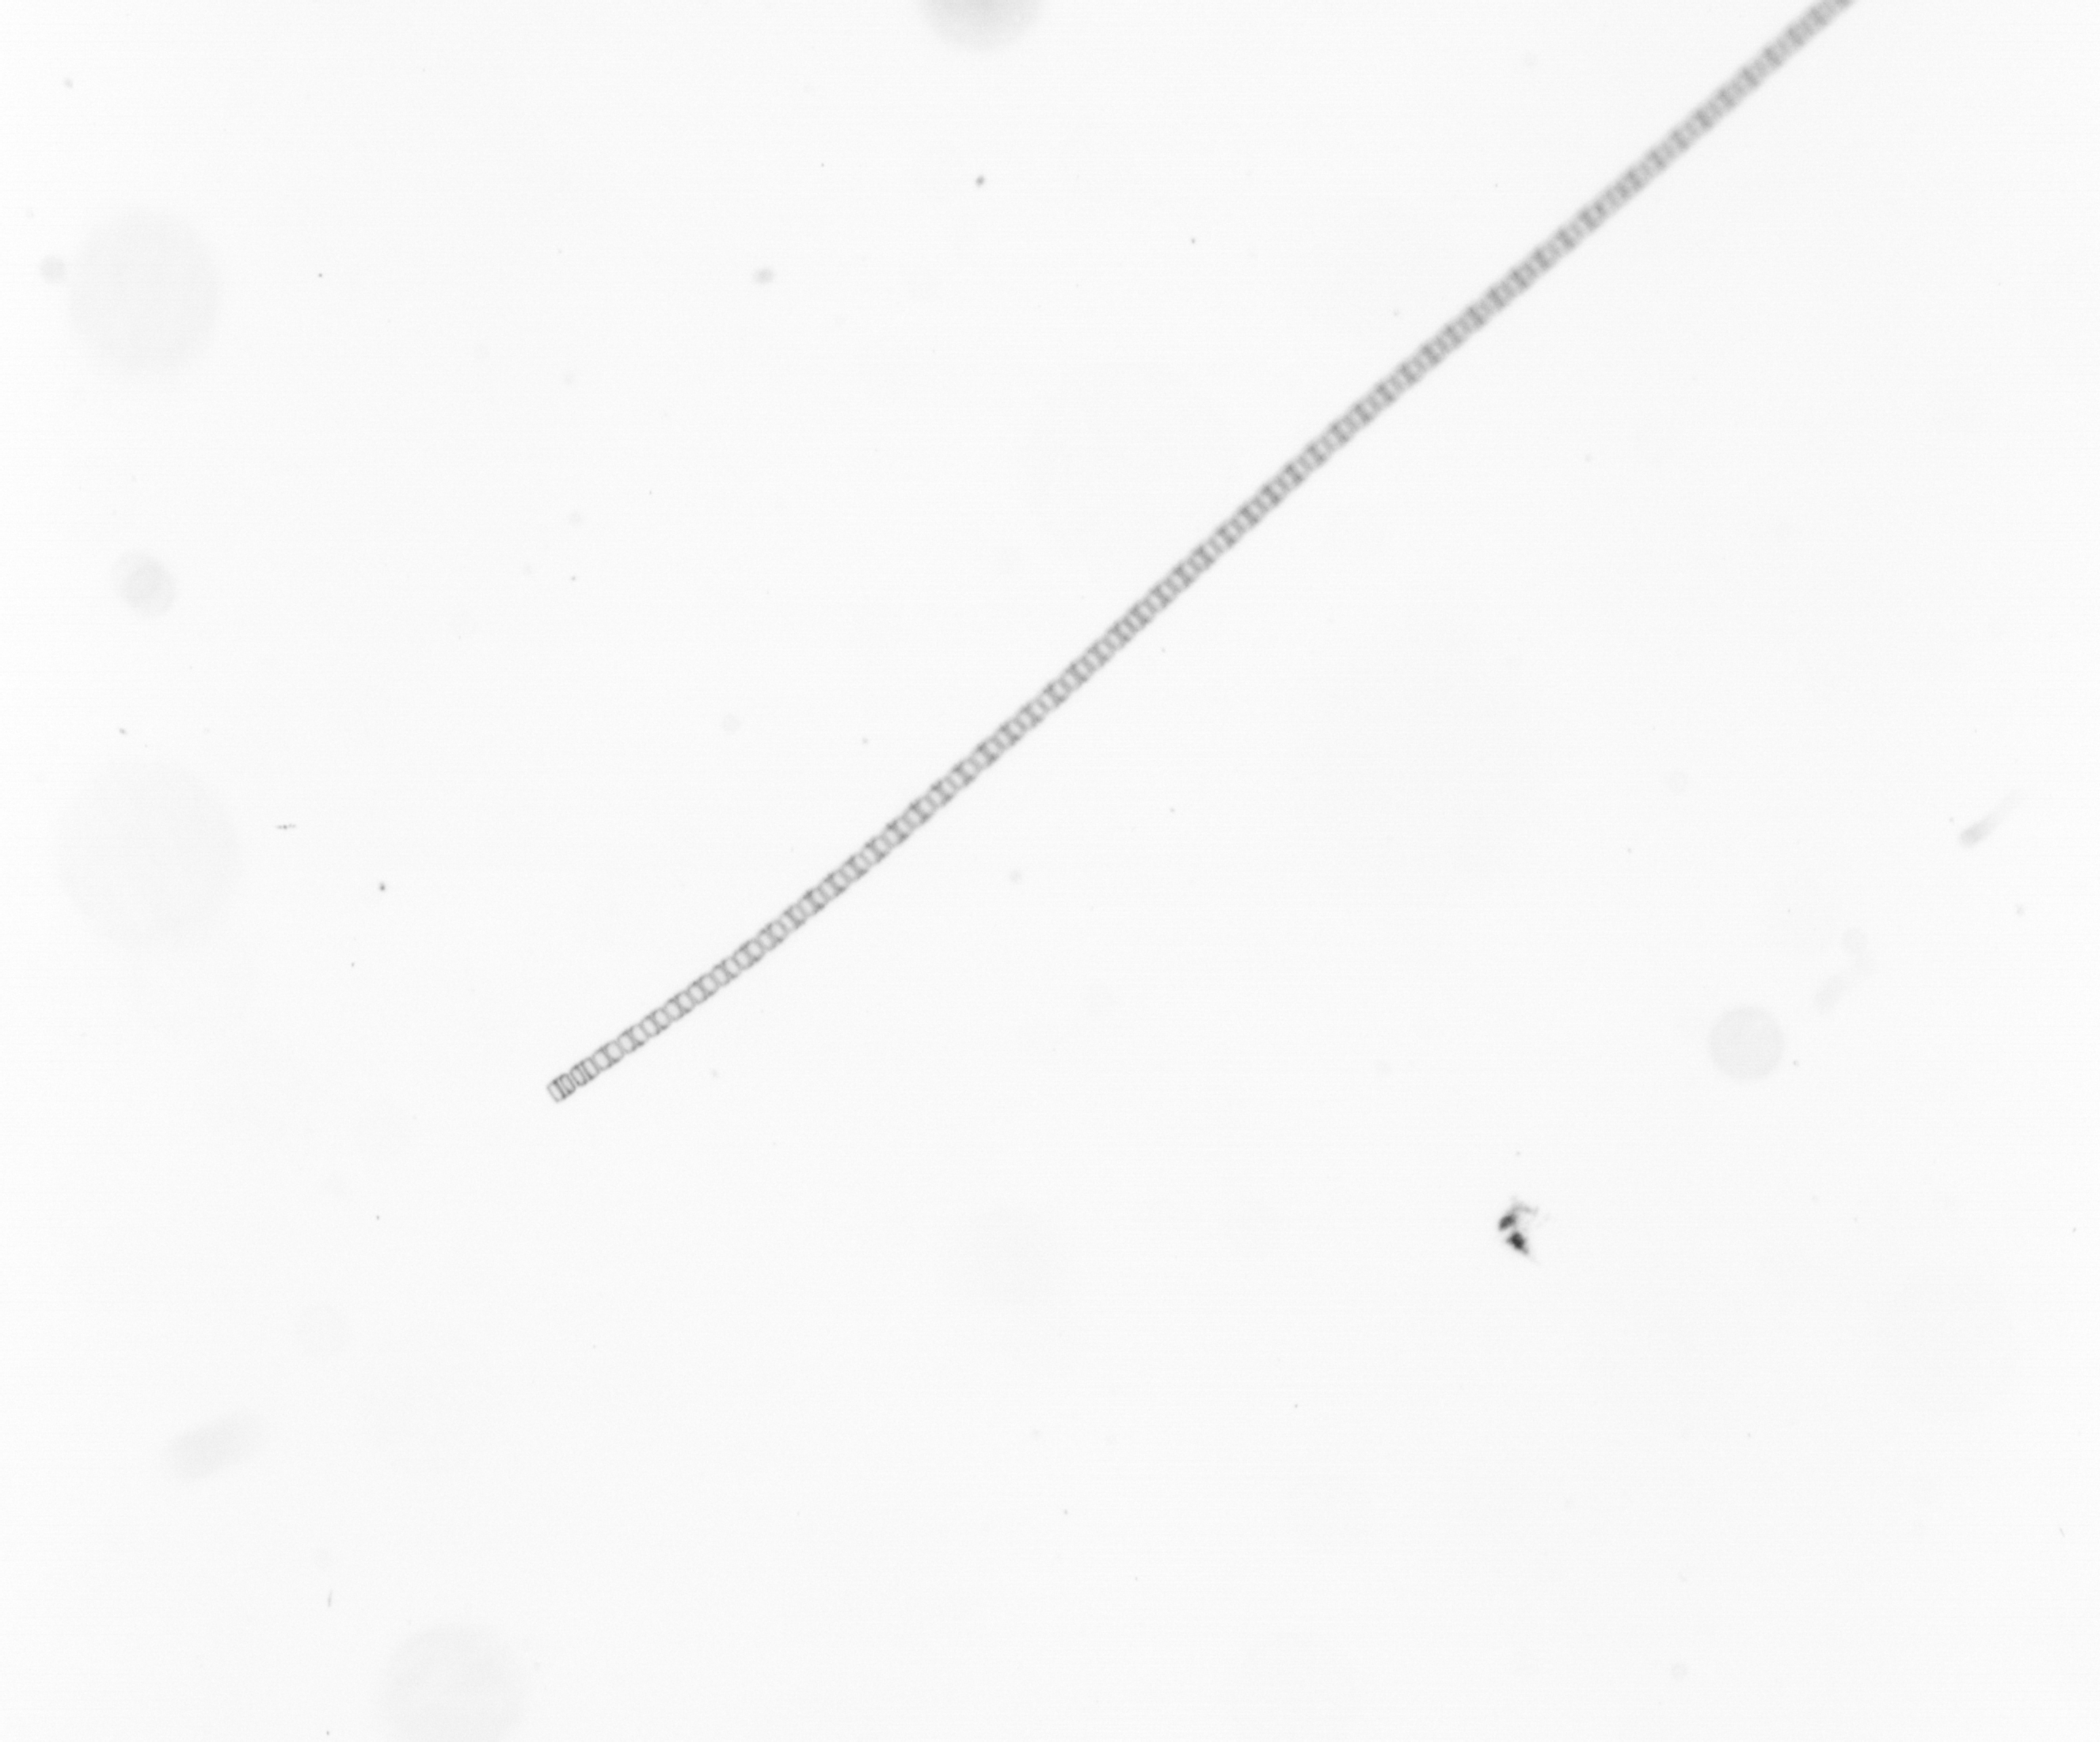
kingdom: Chromista
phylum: Ochrophyta
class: Bacillariophyceae
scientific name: Bacillariophyceae
